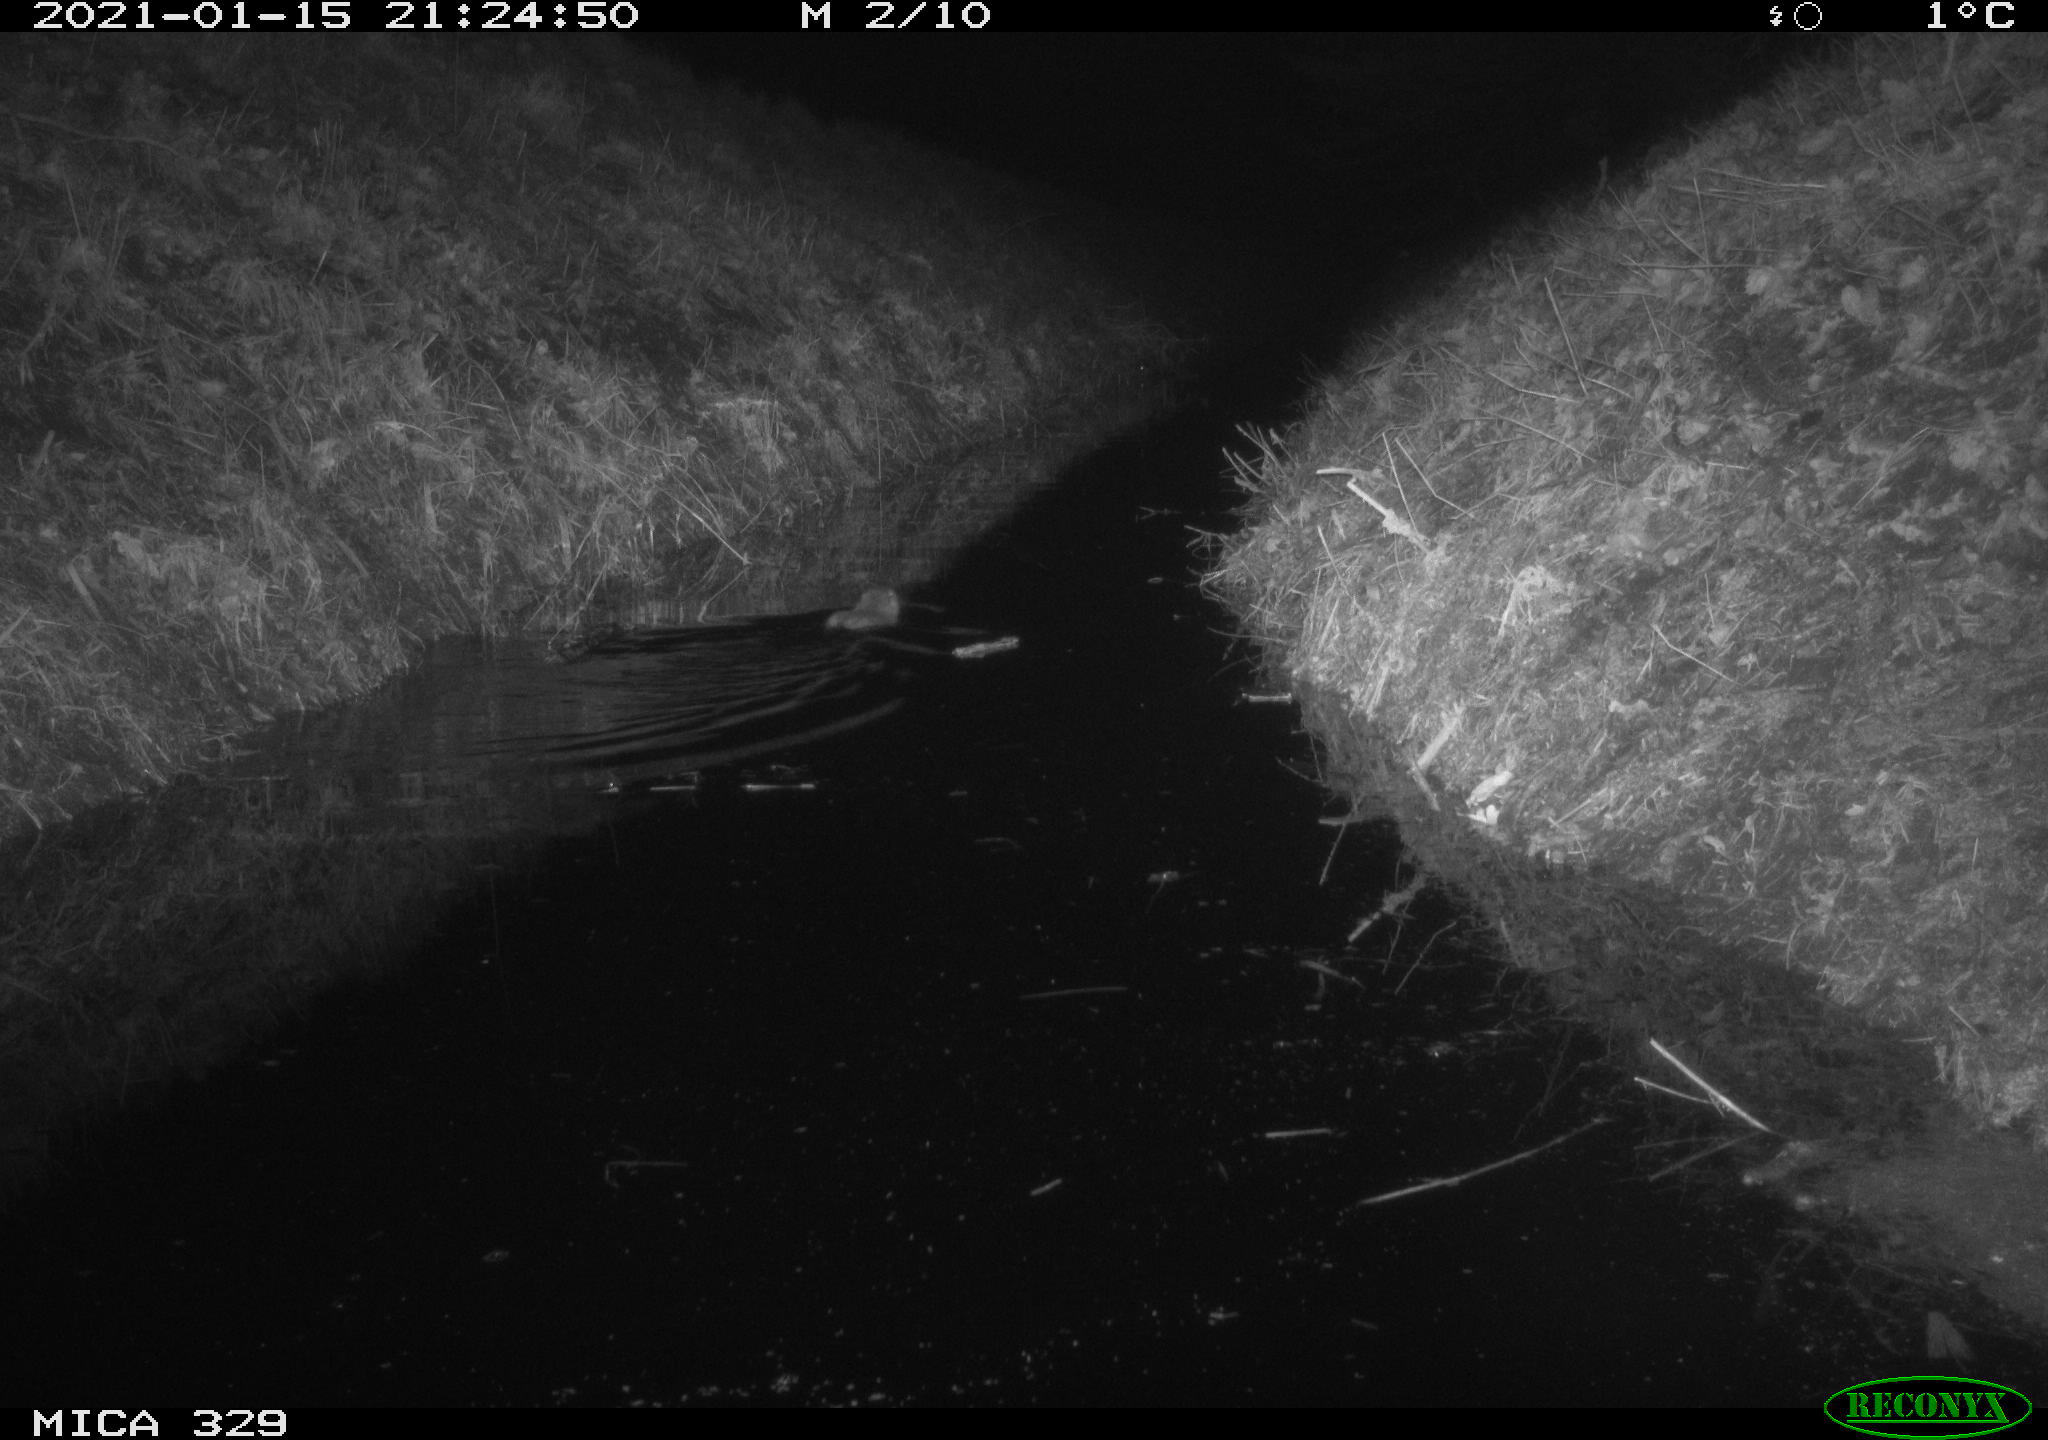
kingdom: Animalia
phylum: Chordata
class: Mammalia
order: Rodentia
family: Myocastoridae
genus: Myocastor
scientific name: Myocastor coypus
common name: Coypu
